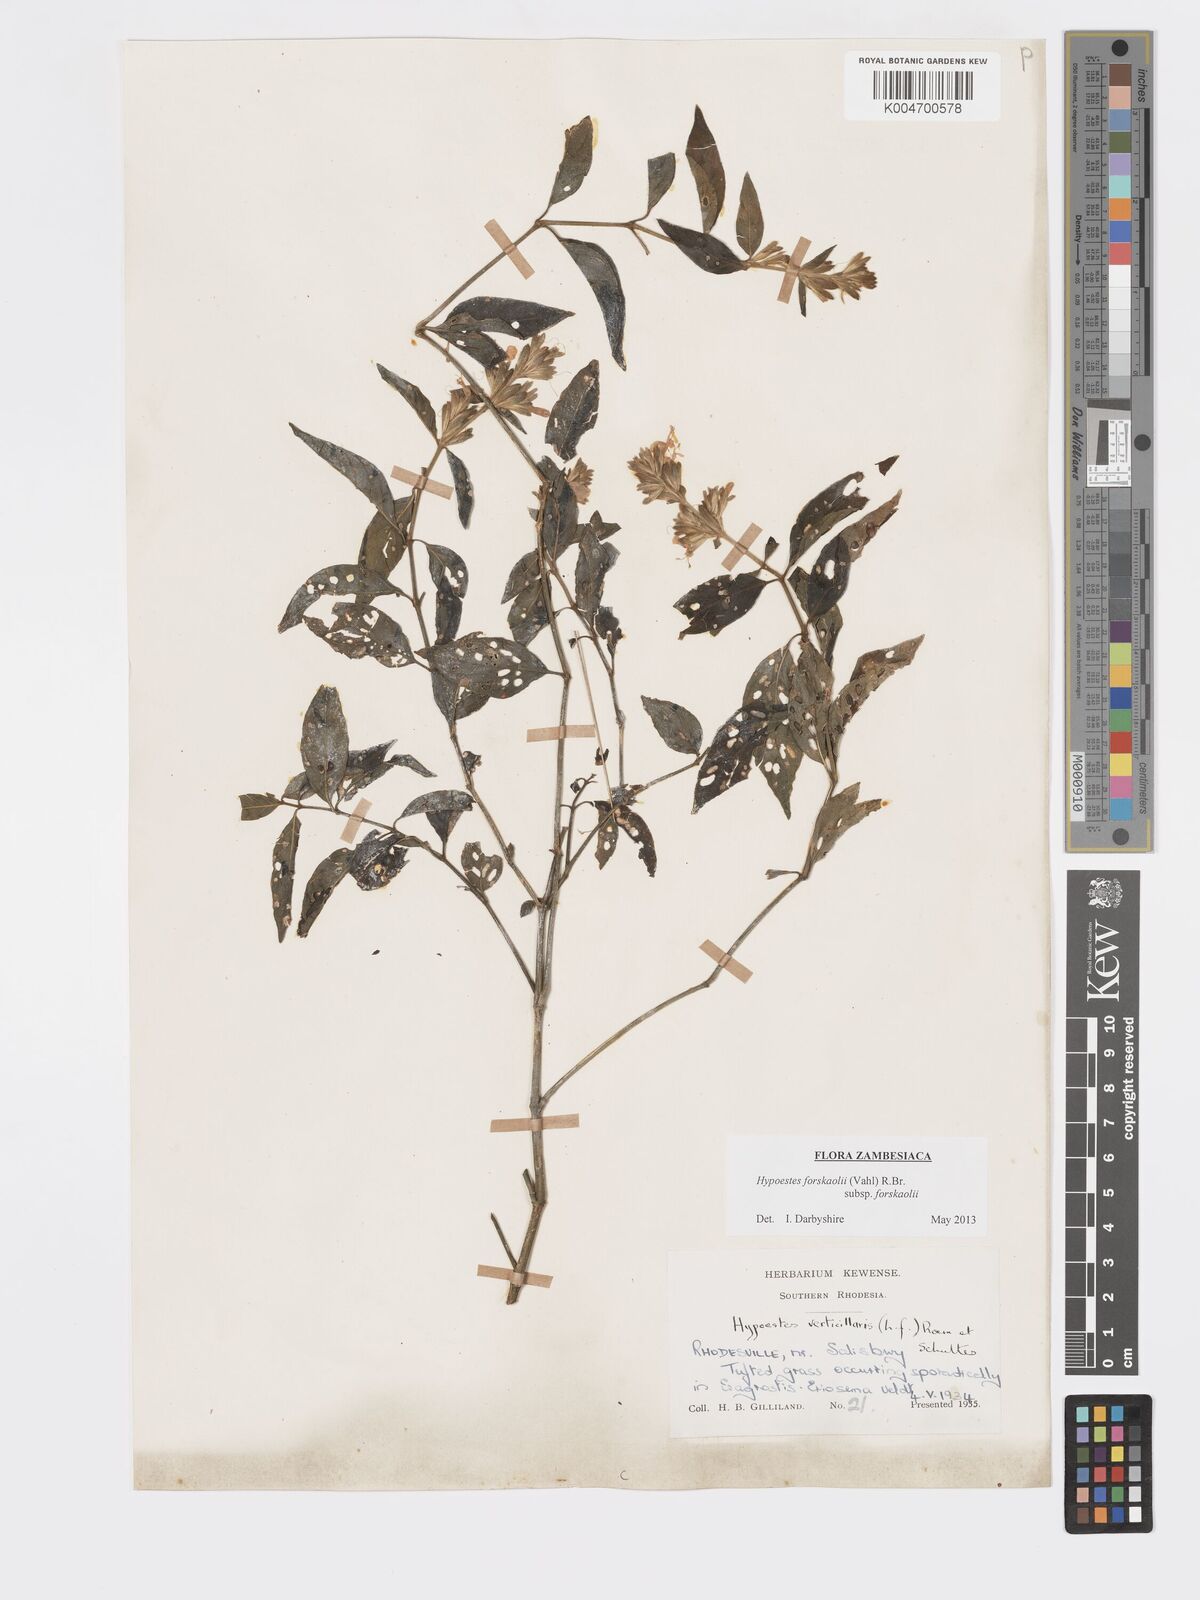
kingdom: Plantae
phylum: Tracheophyta
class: Magnoliopsida
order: Lamiales
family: Acanthaceae
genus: Hypoestes
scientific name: Hypoestes forskaolii
